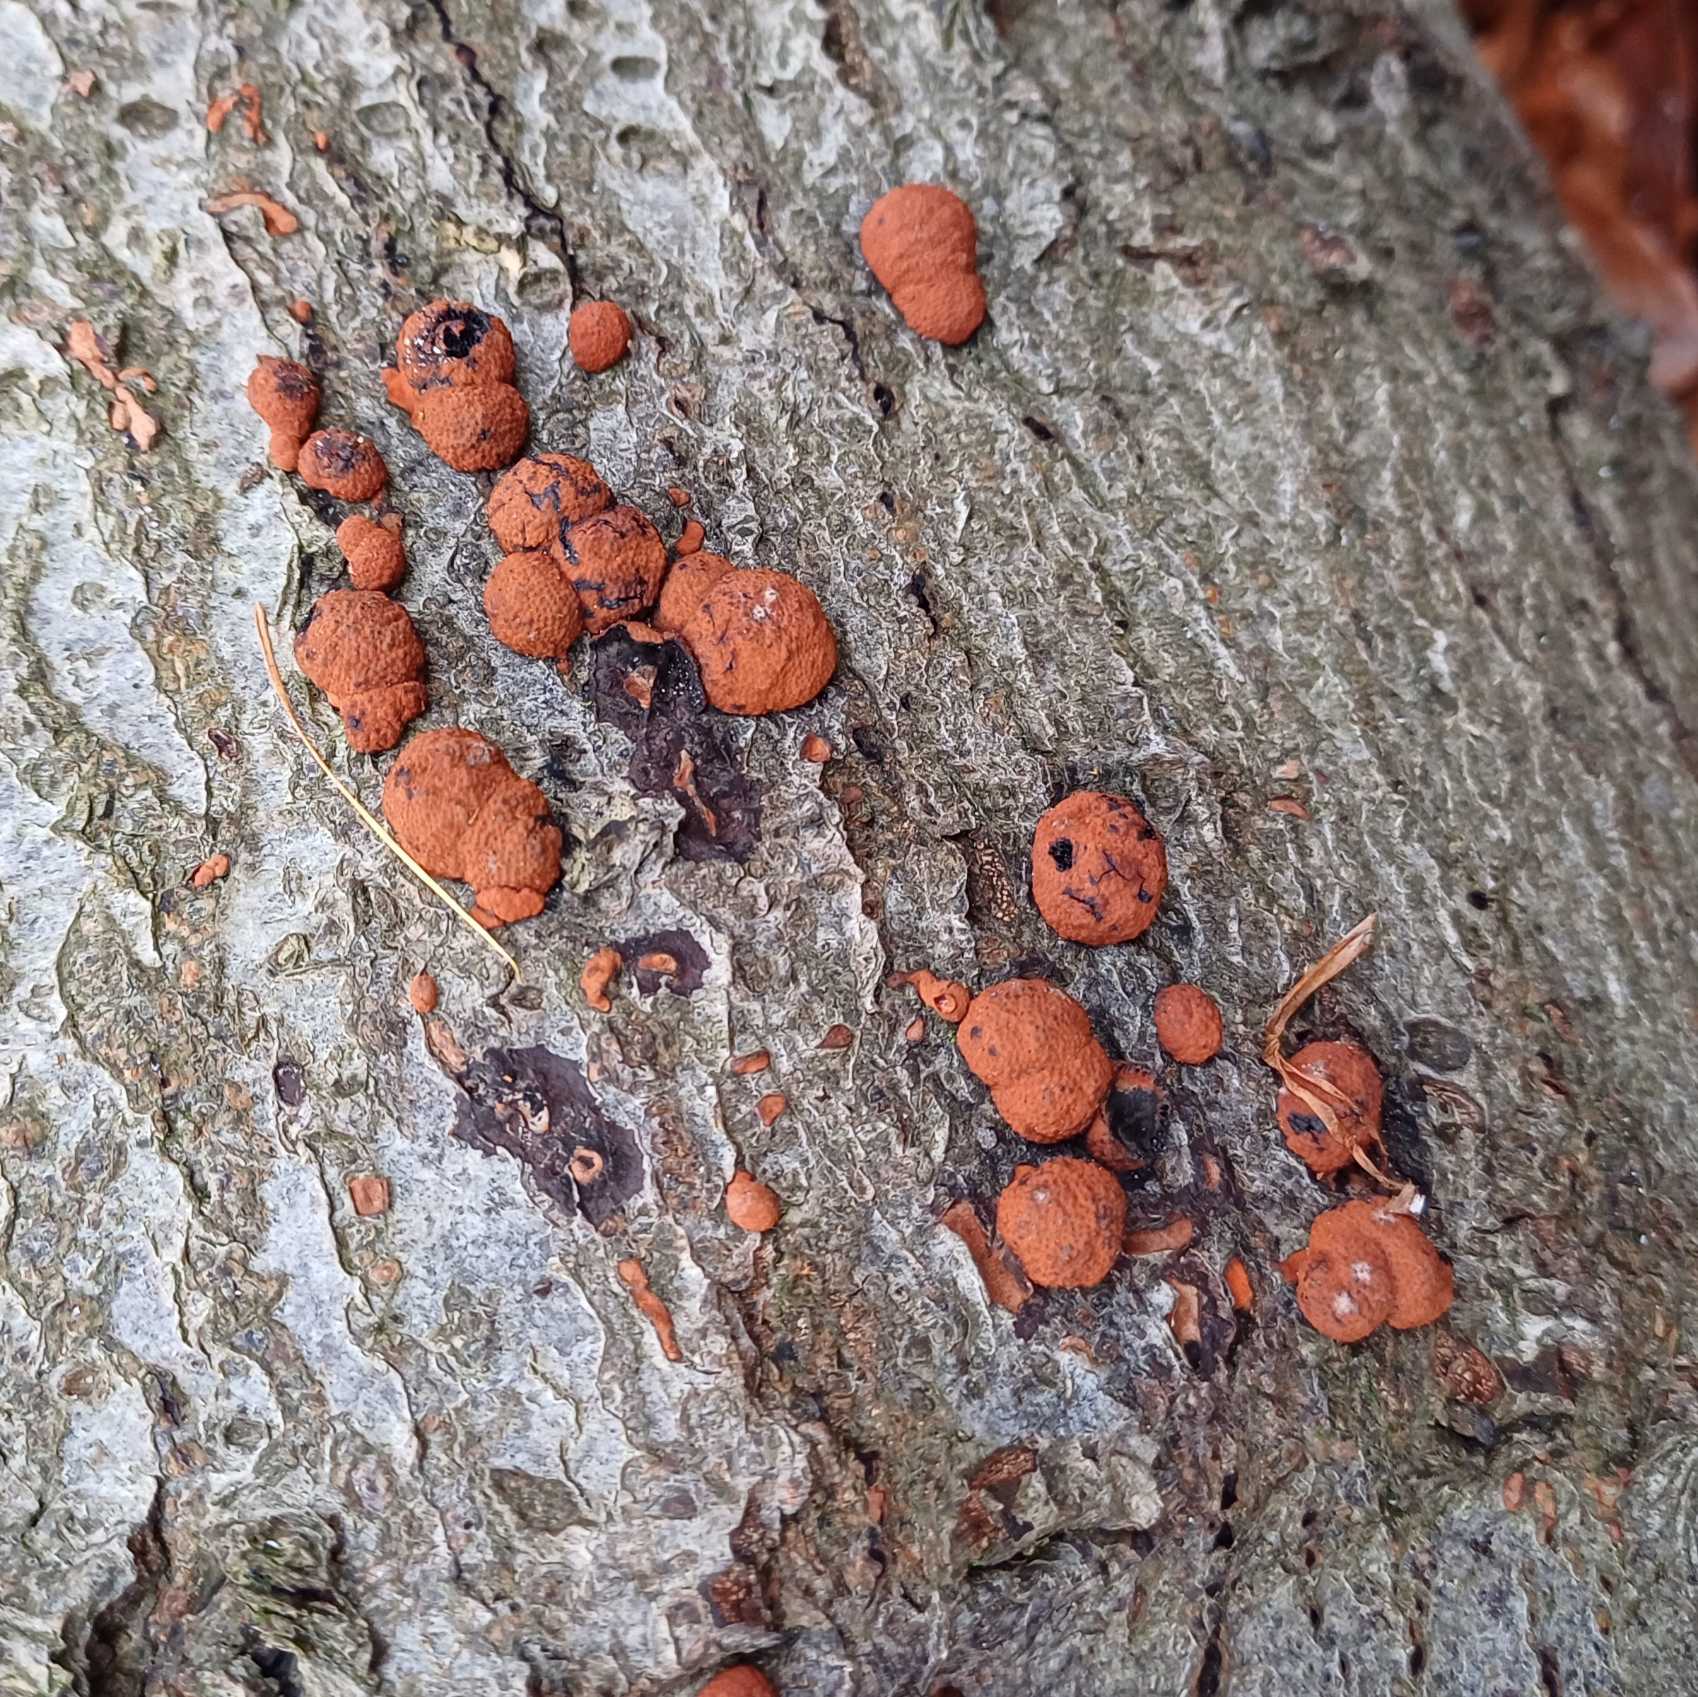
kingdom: Fungi
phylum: Ascomycota
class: Sordariomycetes
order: Xylariales
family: Hypoxylaceae
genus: Hypoxylon
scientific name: Hypoxylon fragiforme
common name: Kuljordbær
